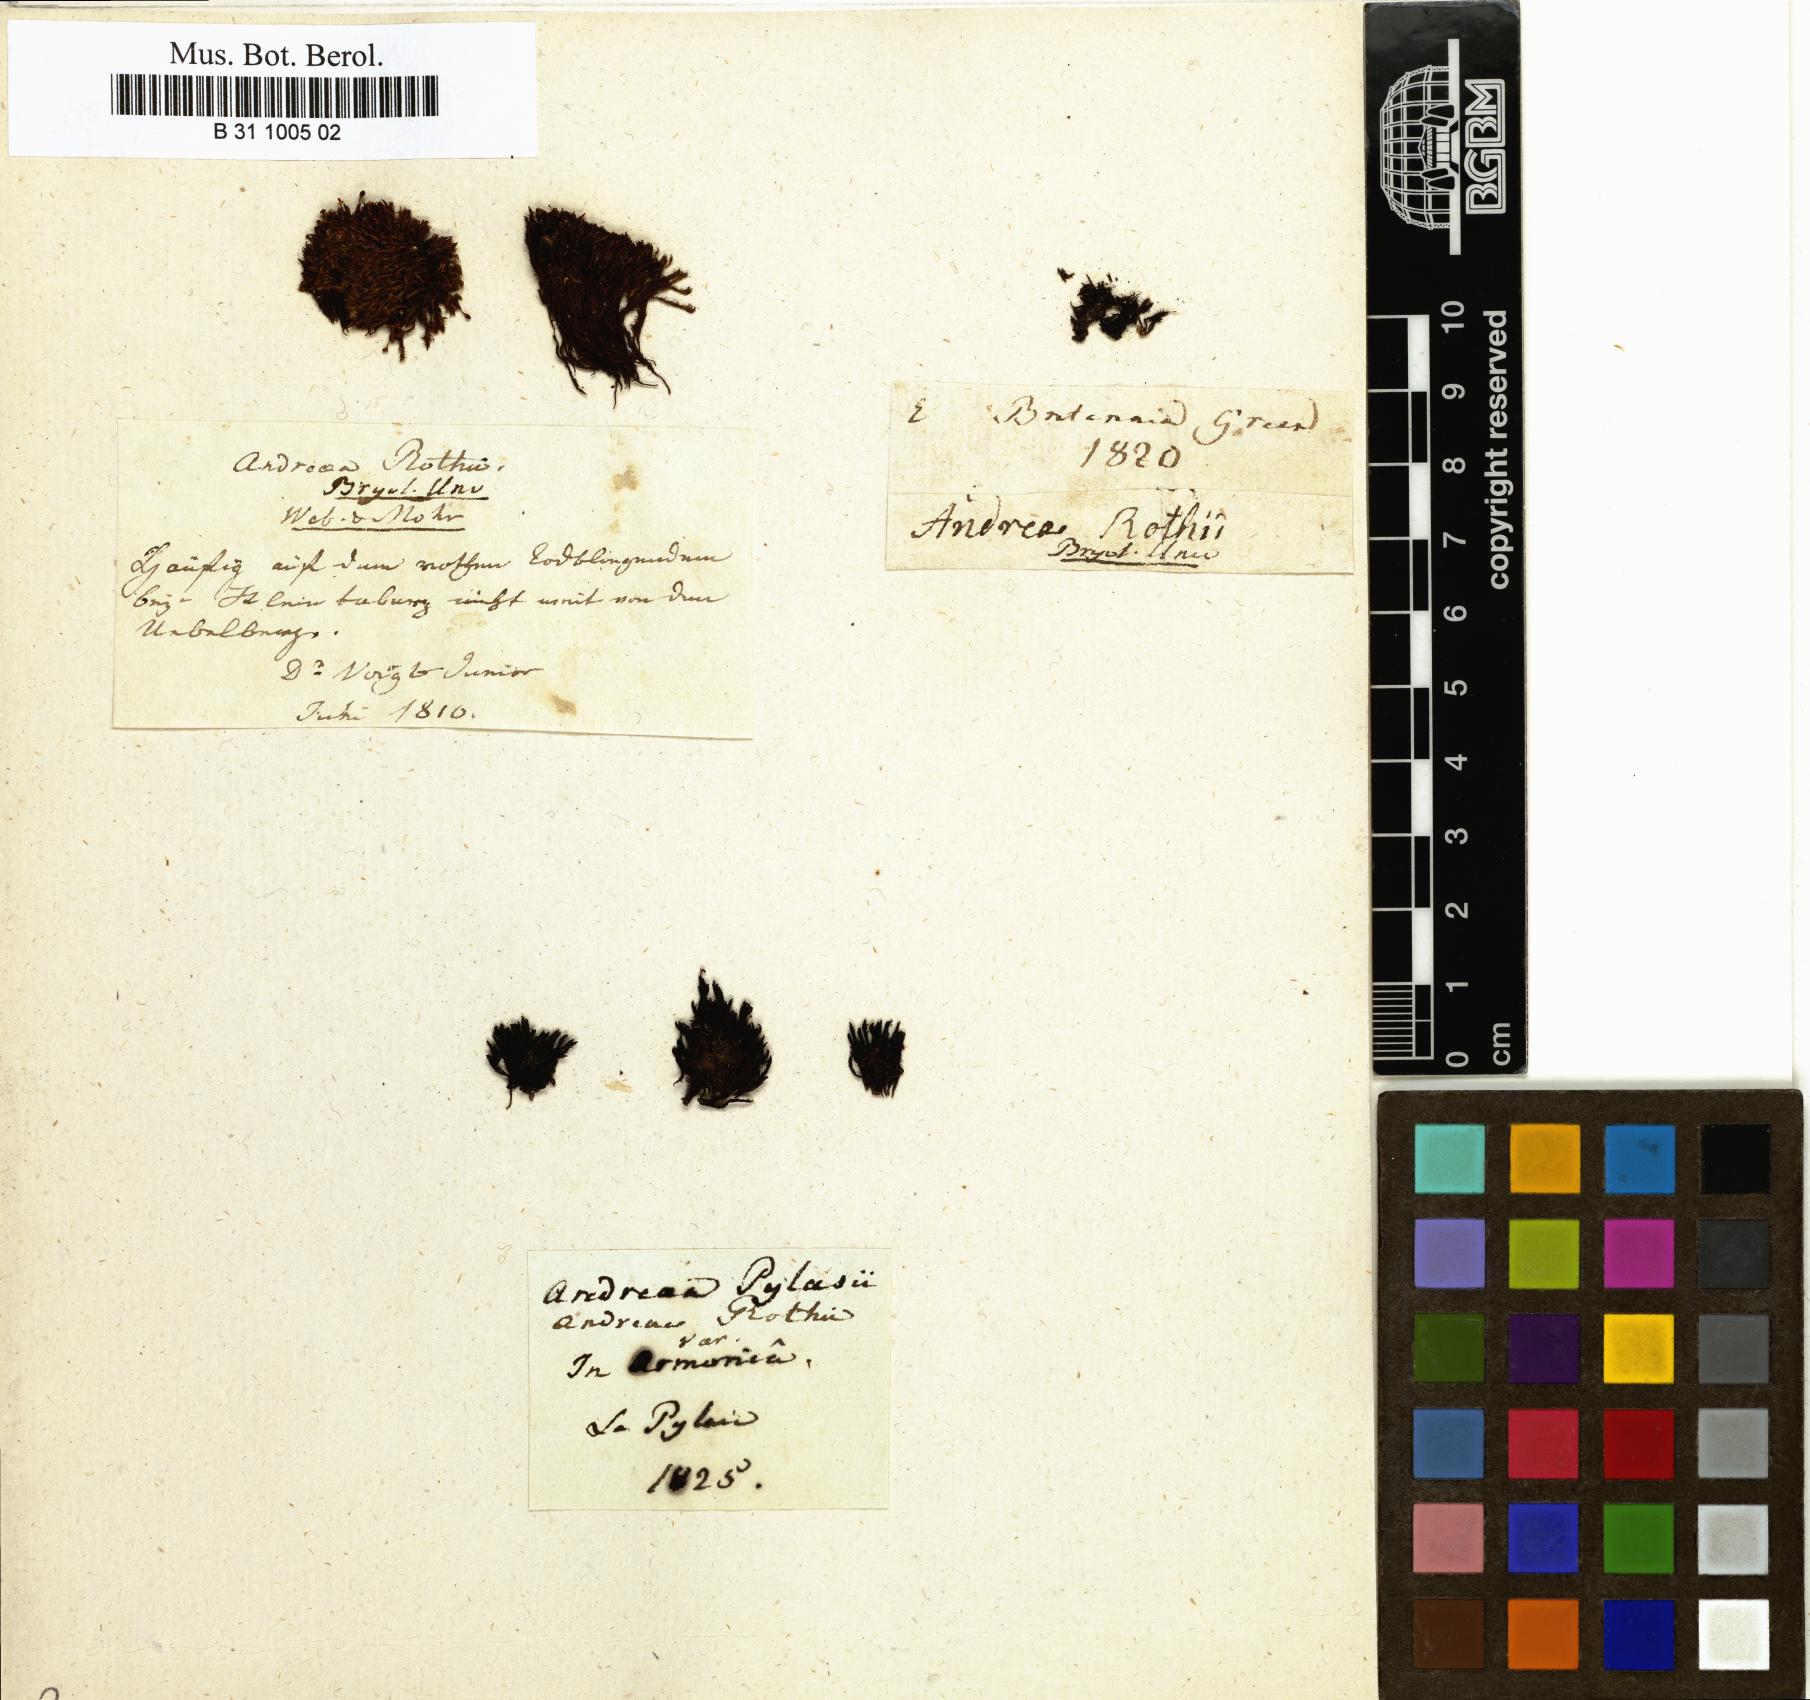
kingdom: Plantae
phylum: Bryophyta
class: Andreaeopsida
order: Andreaeales
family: Andreaeaceae
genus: Andreaea
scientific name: Andreaea rothii
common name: Dusky rock moss
